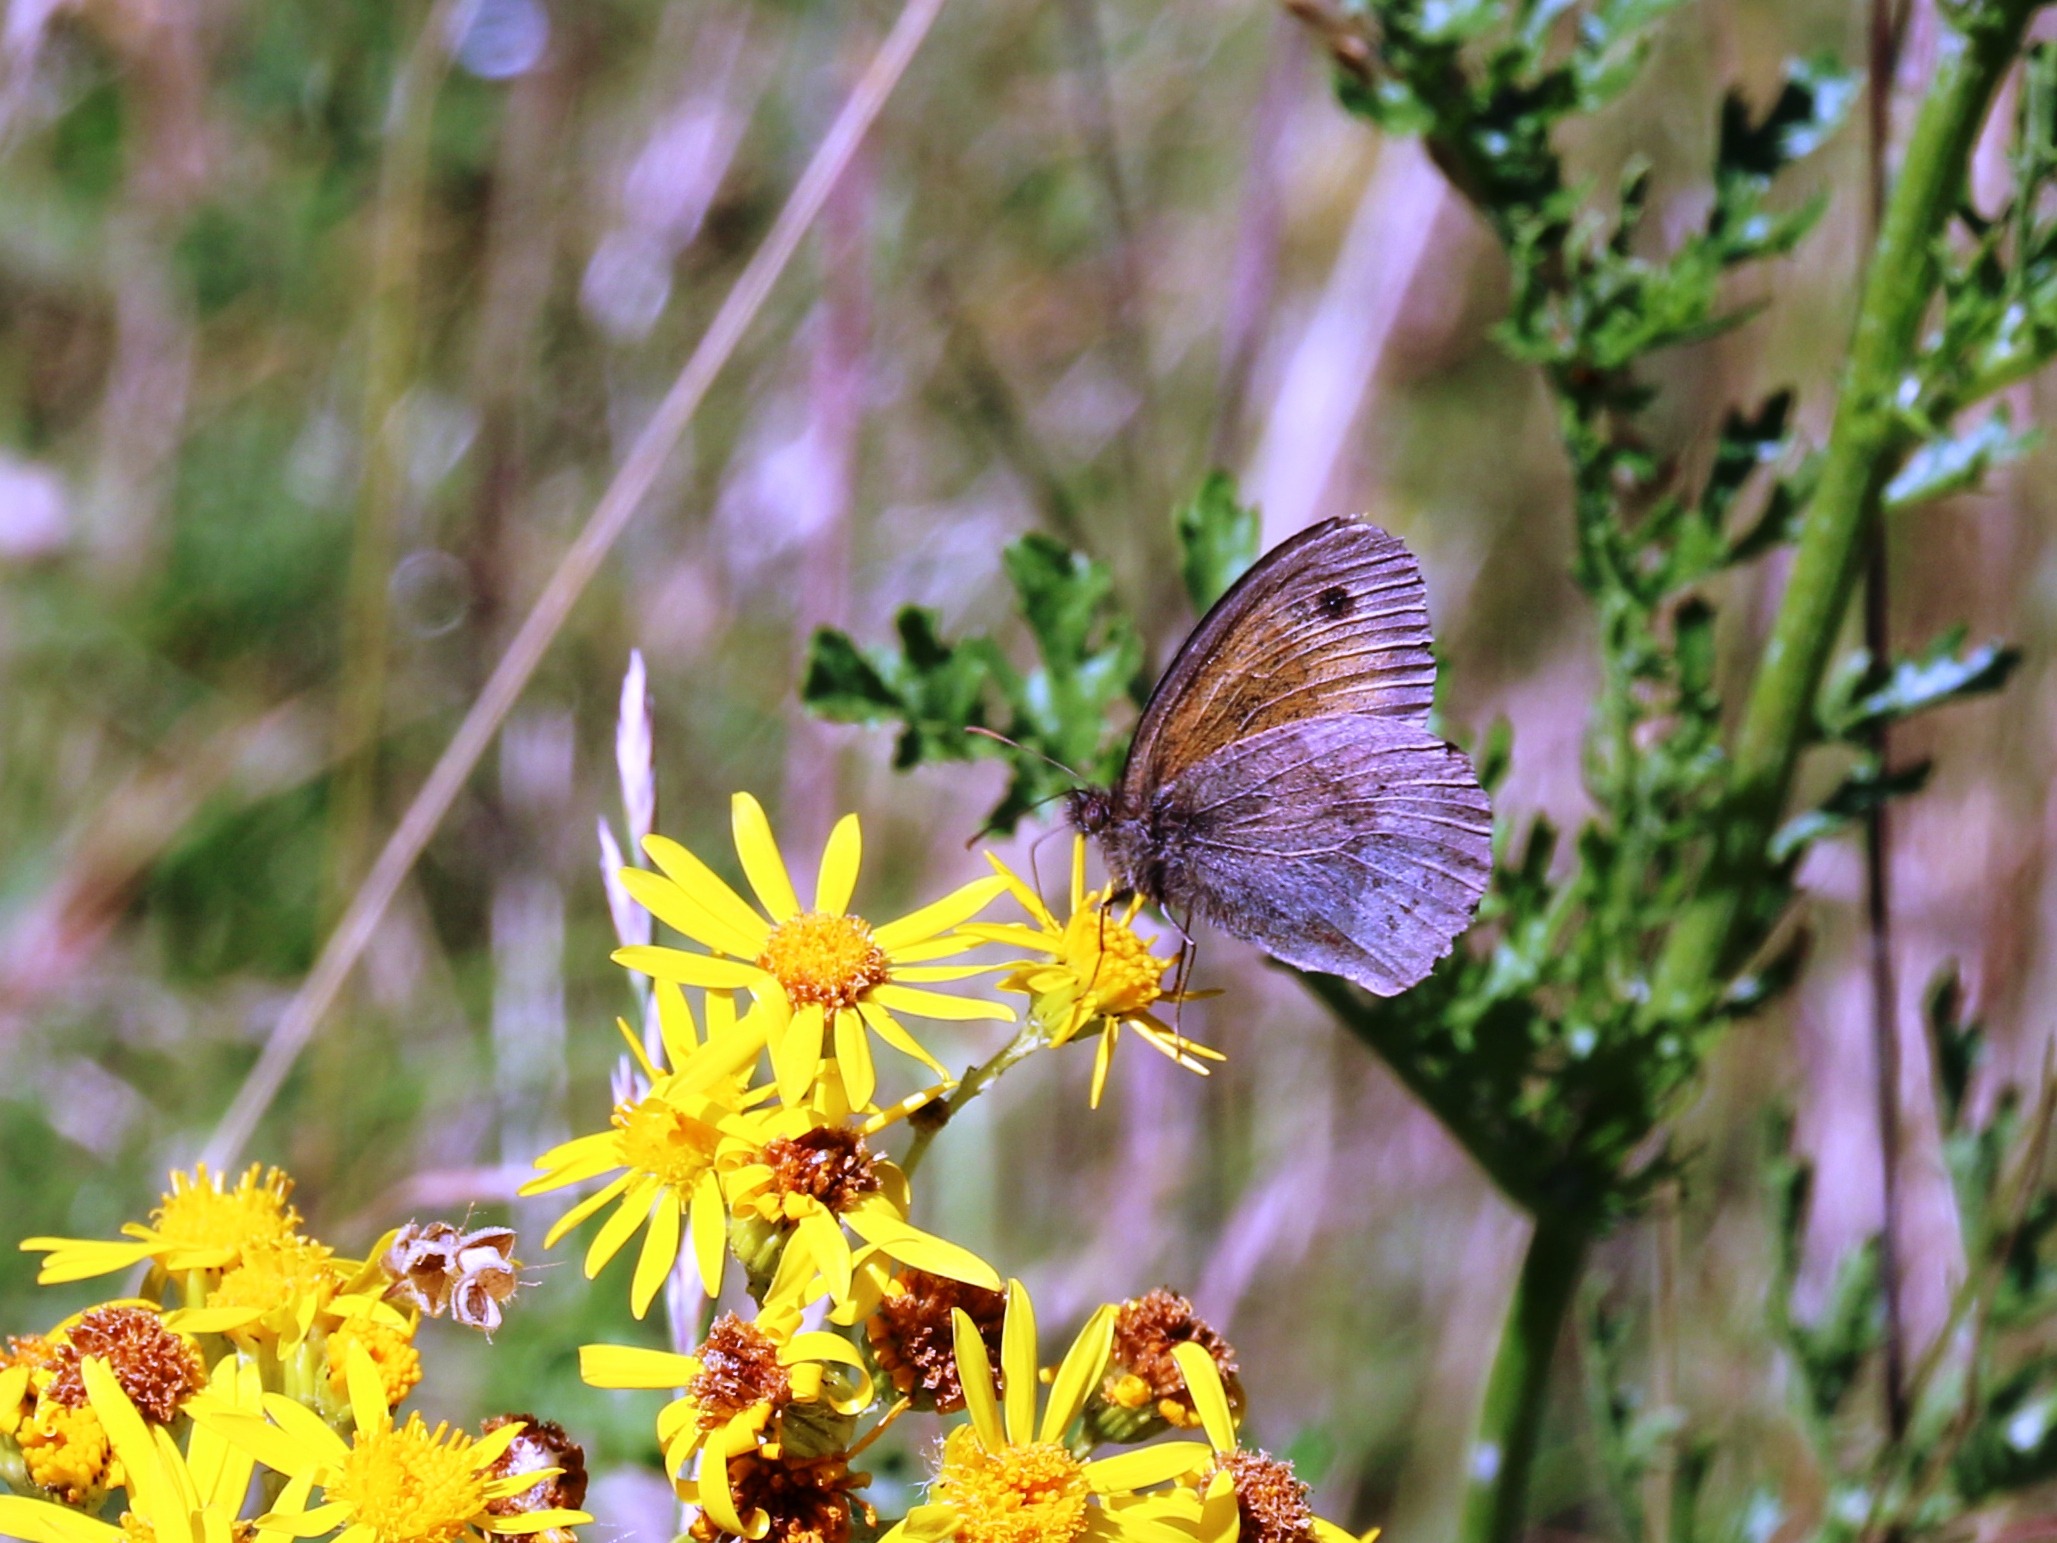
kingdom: Animalia
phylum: Arthropoda
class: Insecta
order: Lepidoptera
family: Nymphalidae
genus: Maniola
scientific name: Maniola jurtina
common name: Græsrandøje
